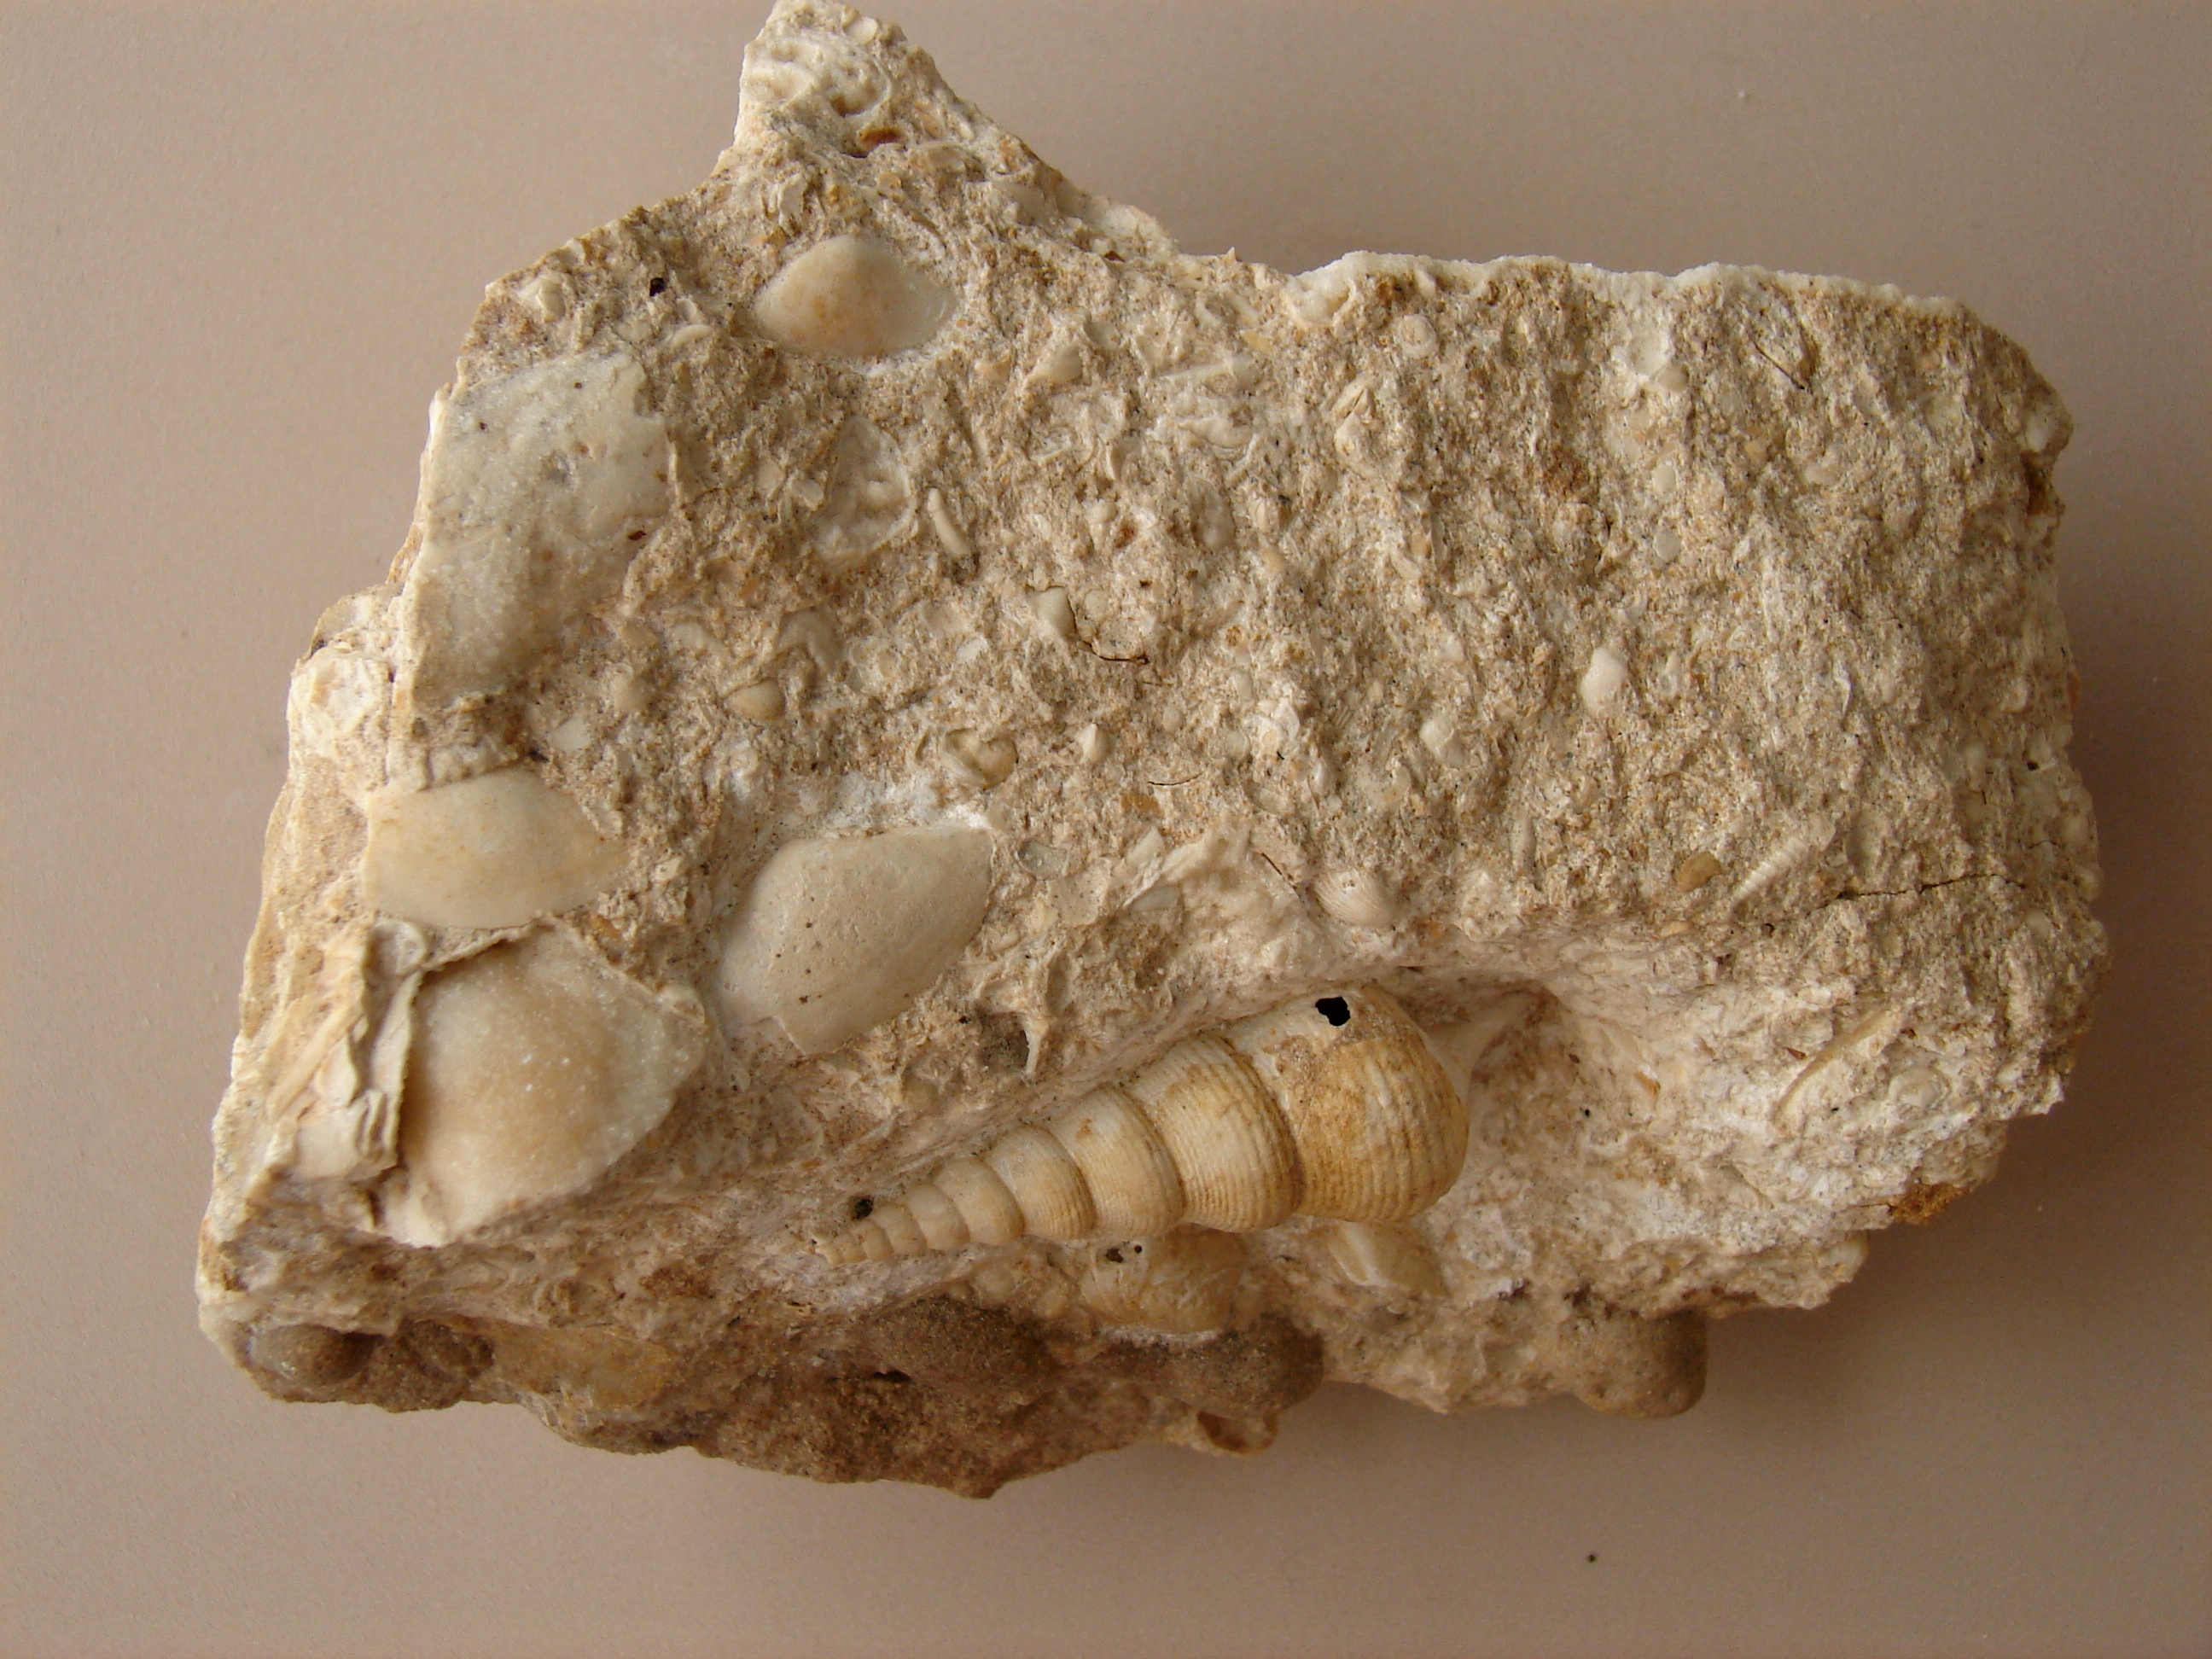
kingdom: Animalia
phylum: Mollusca
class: Gastropoda
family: Pseudomelaniidae
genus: Bourgetia
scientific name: Bourgetia Turritella deshayesea
